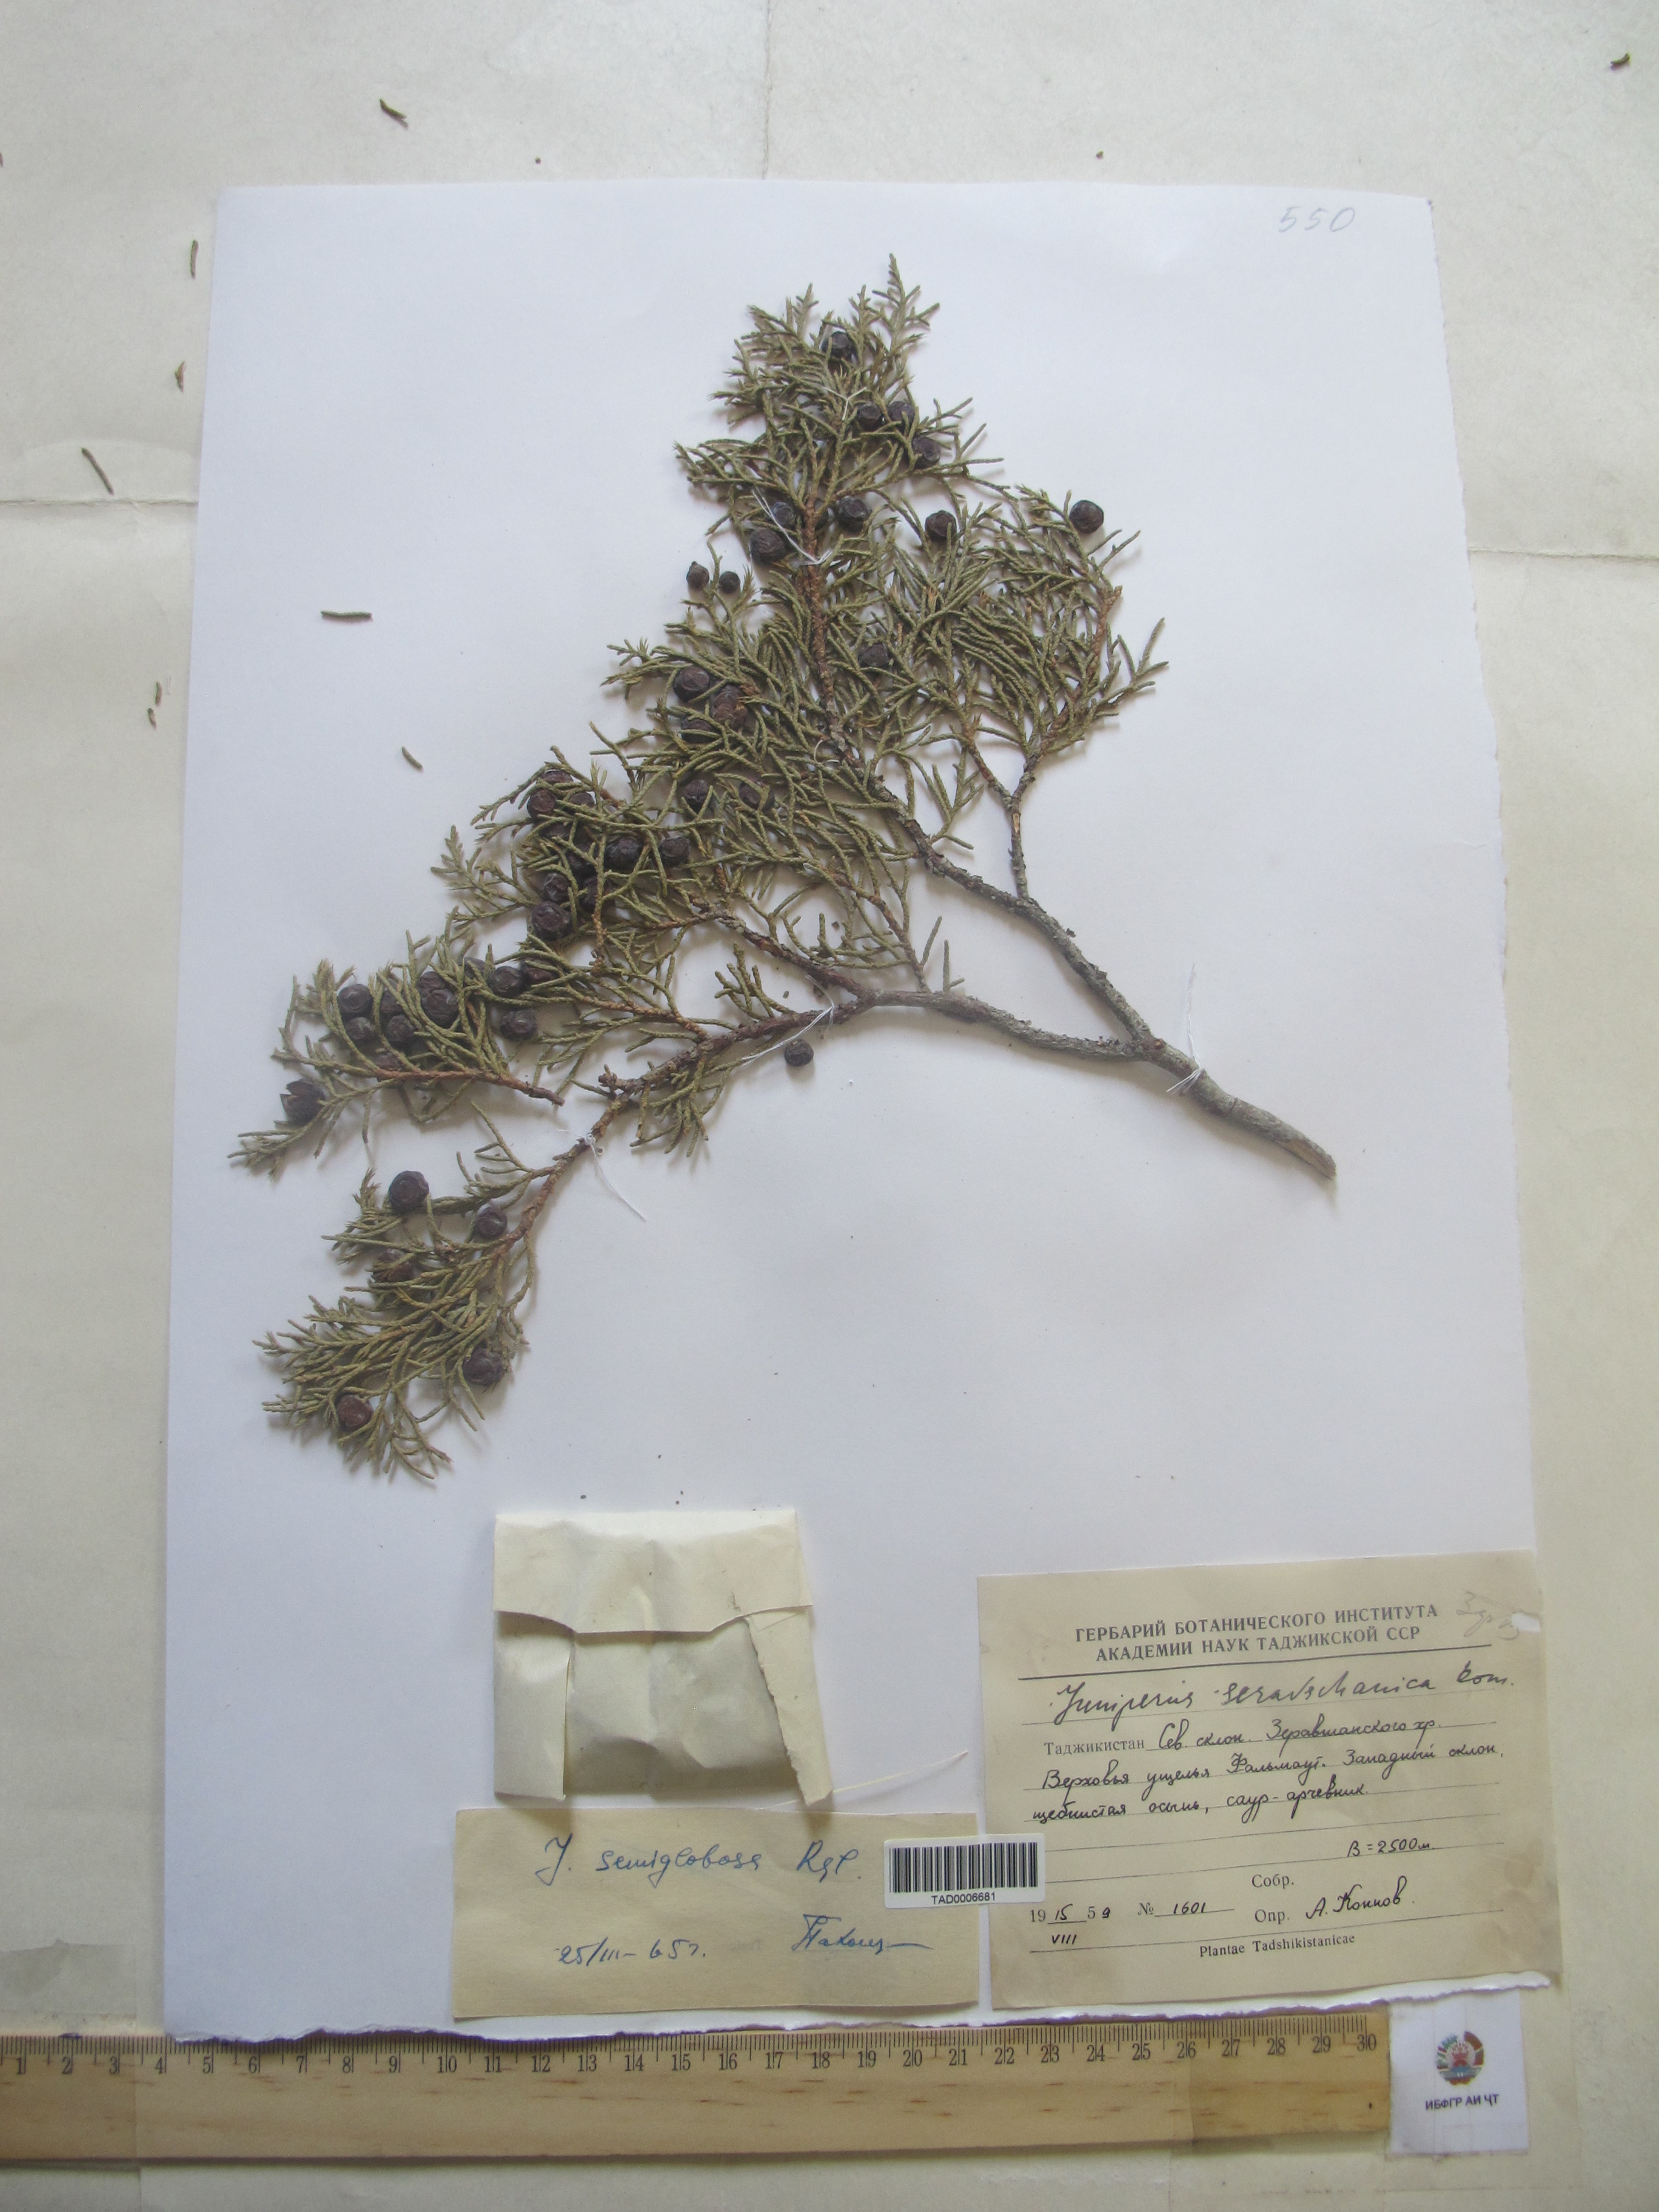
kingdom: Plantae
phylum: Tracheophyta
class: Pinopsida
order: Pinales
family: Cupressaceae
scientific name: Cupressaceae
